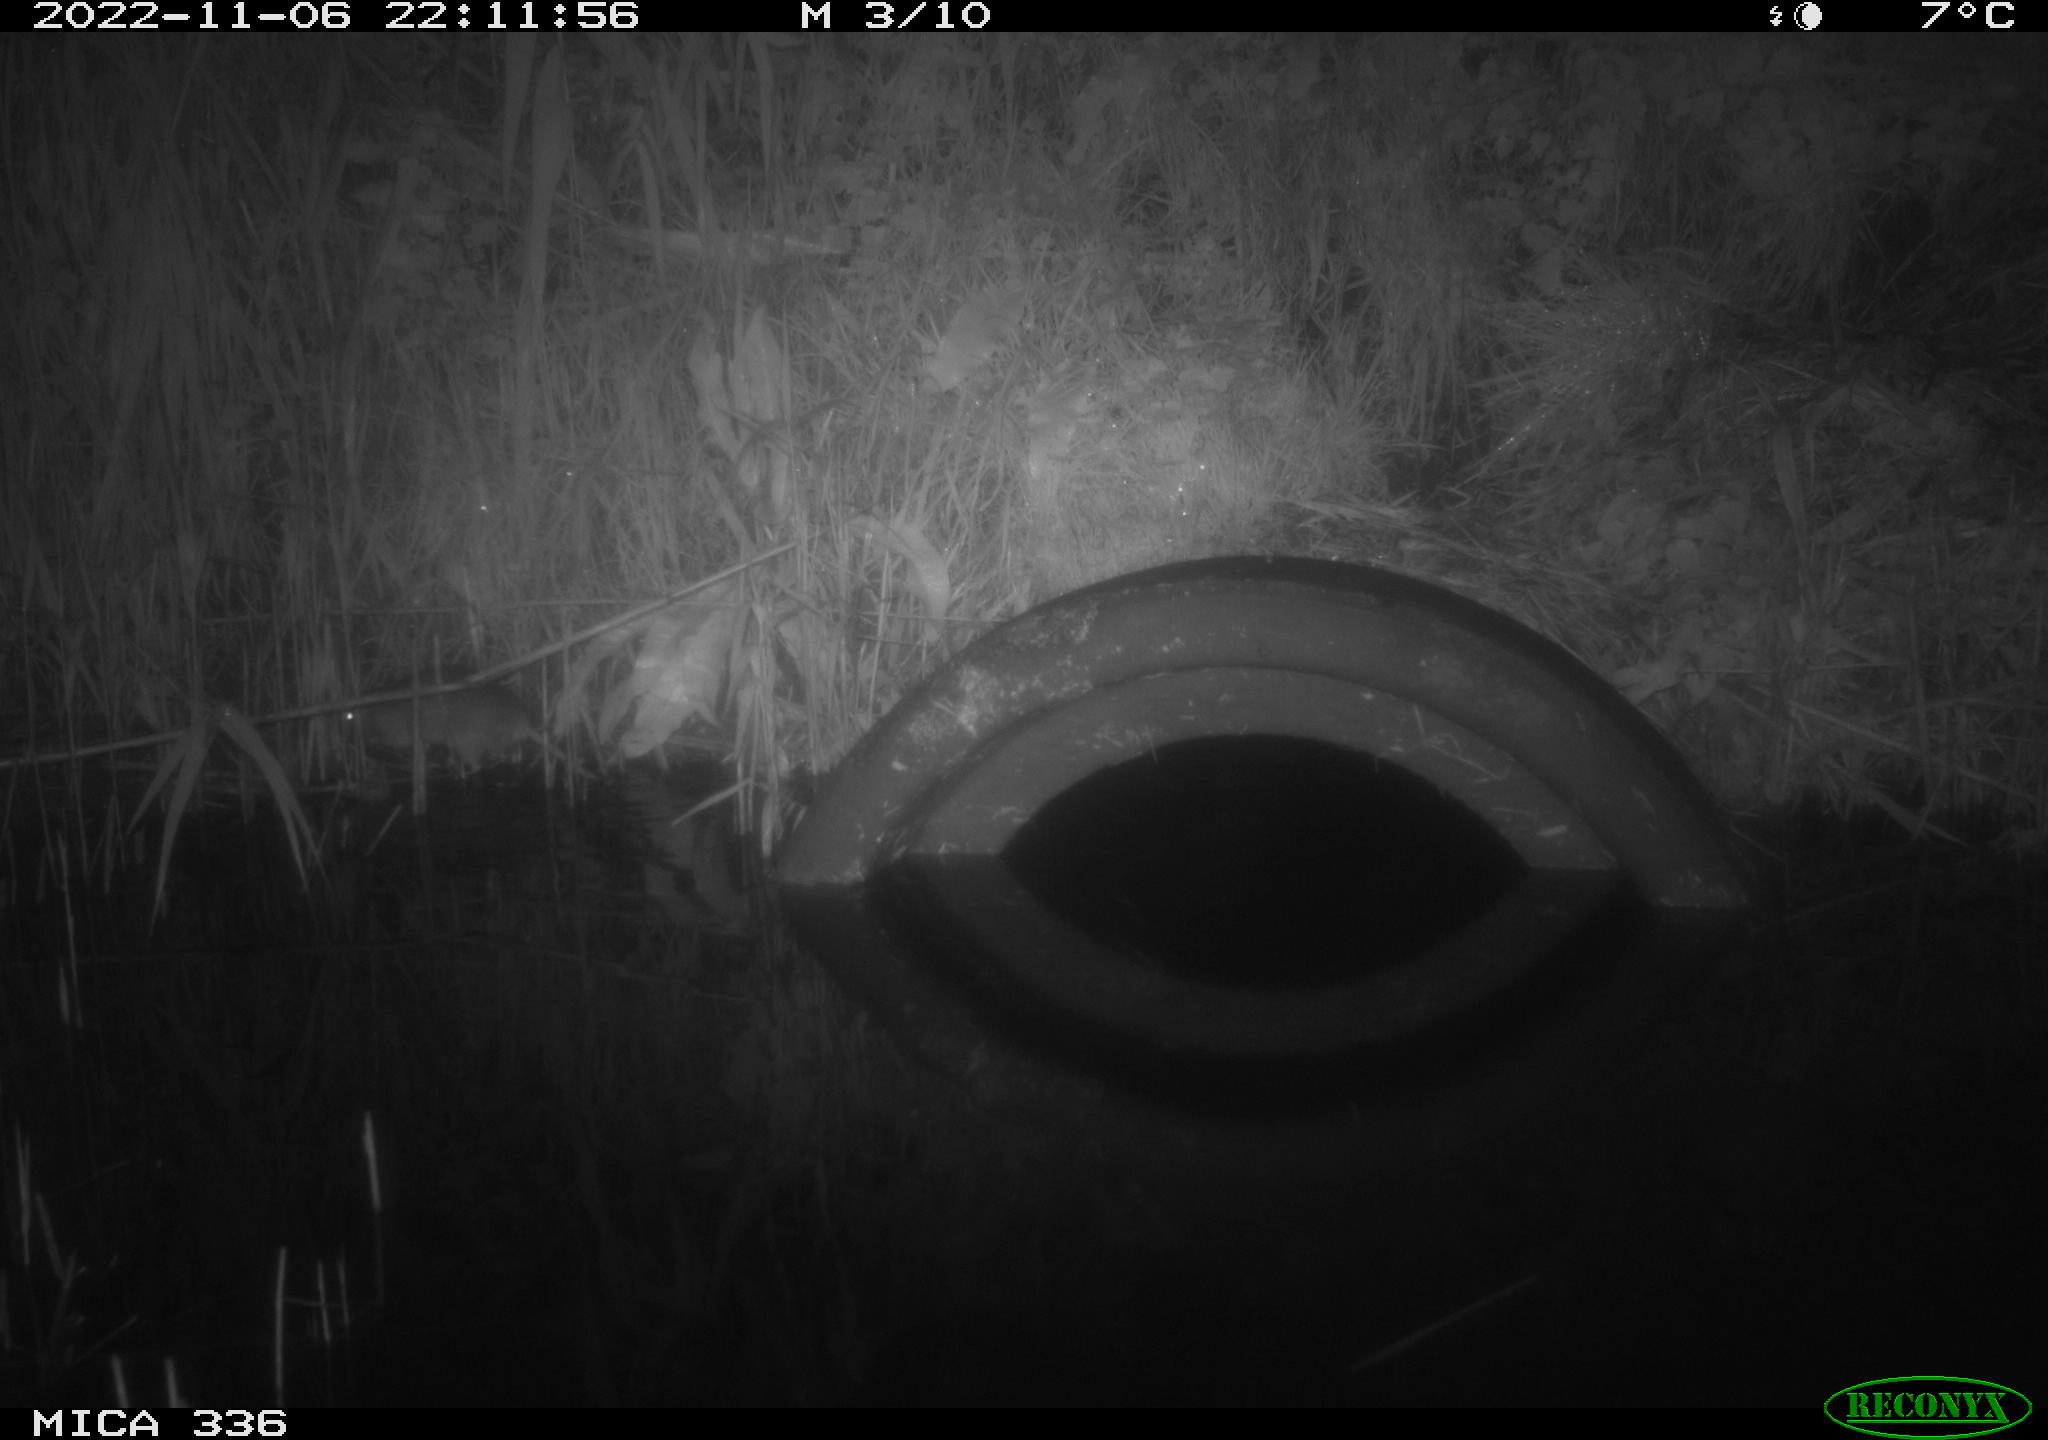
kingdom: Animalia
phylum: Chordata
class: Mammalia
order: Rodentia
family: Muridae
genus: Rattus
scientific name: Rattus norvegicus
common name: Brown rat
